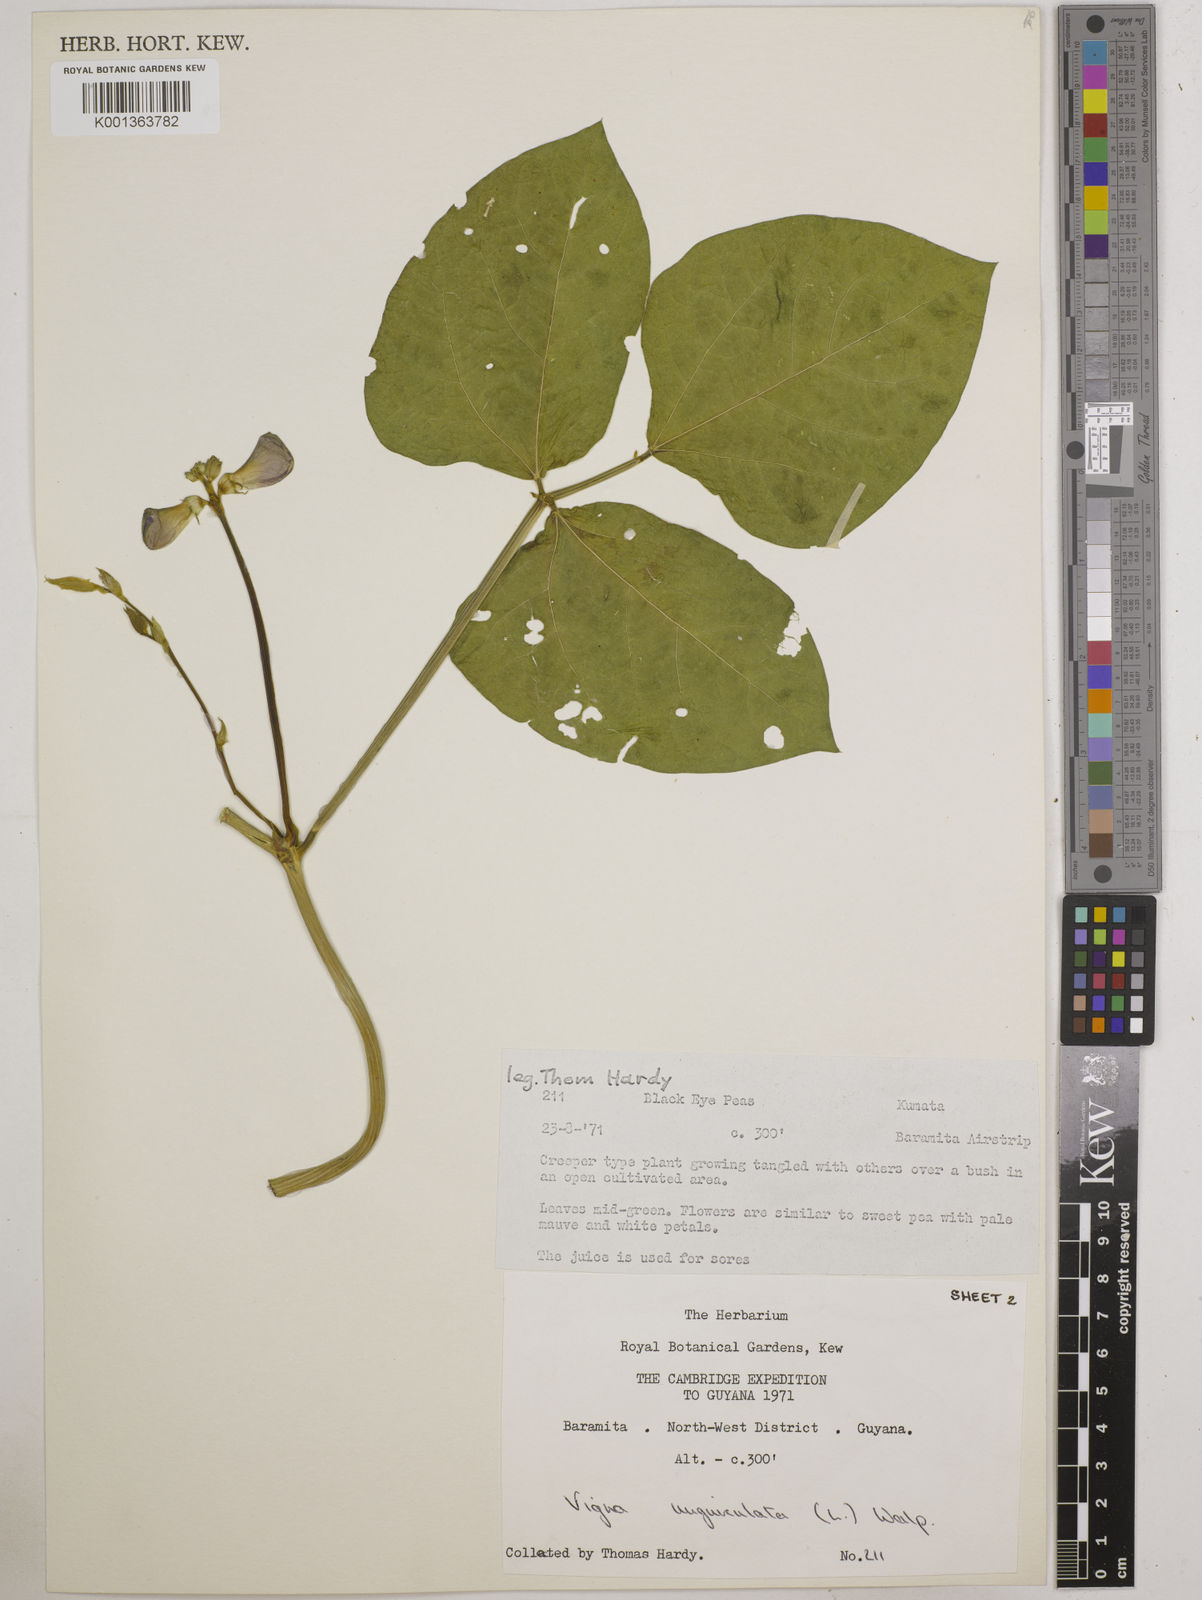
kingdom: Plantae
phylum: Tracheophyta
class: Magnoliopsida
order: Fabales
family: Fabaceae
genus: Vigna
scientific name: Vigna unguiculata
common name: Cowpea
